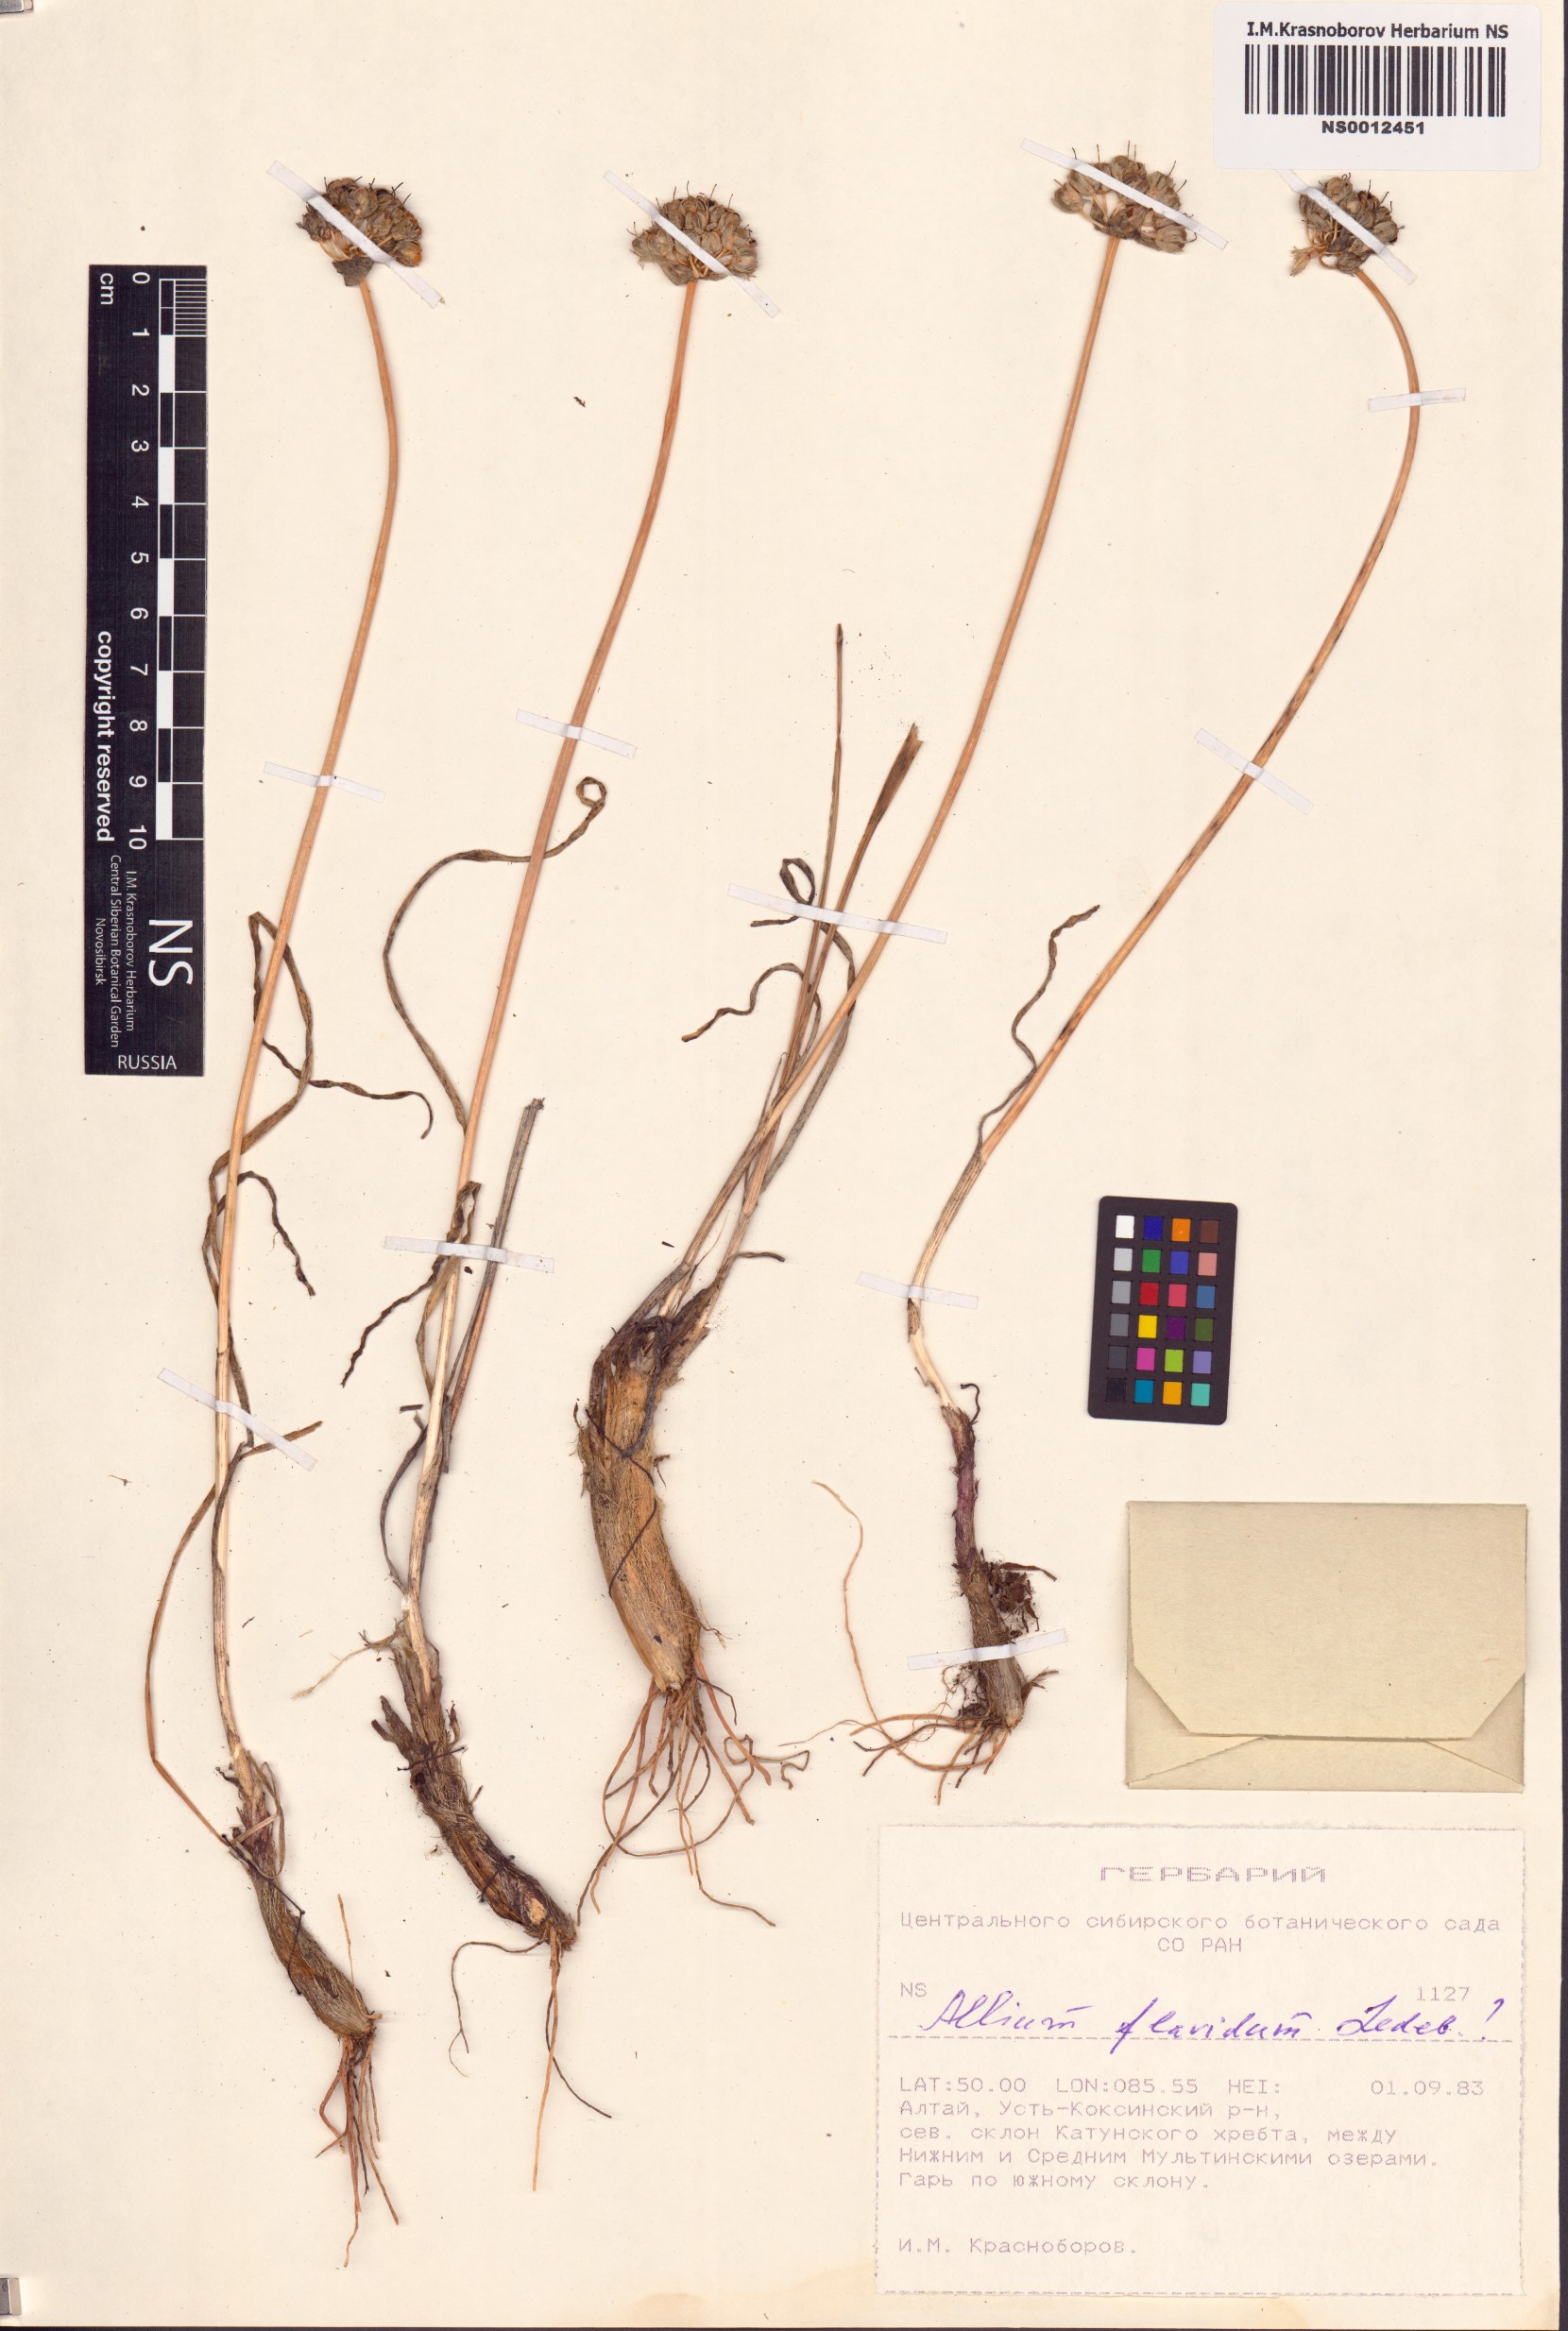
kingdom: Plantae
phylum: Tracheophyta
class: Liliopsida
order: Asparagales
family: Amaryllidaceae
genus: Allium
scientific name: Allium flavidum
